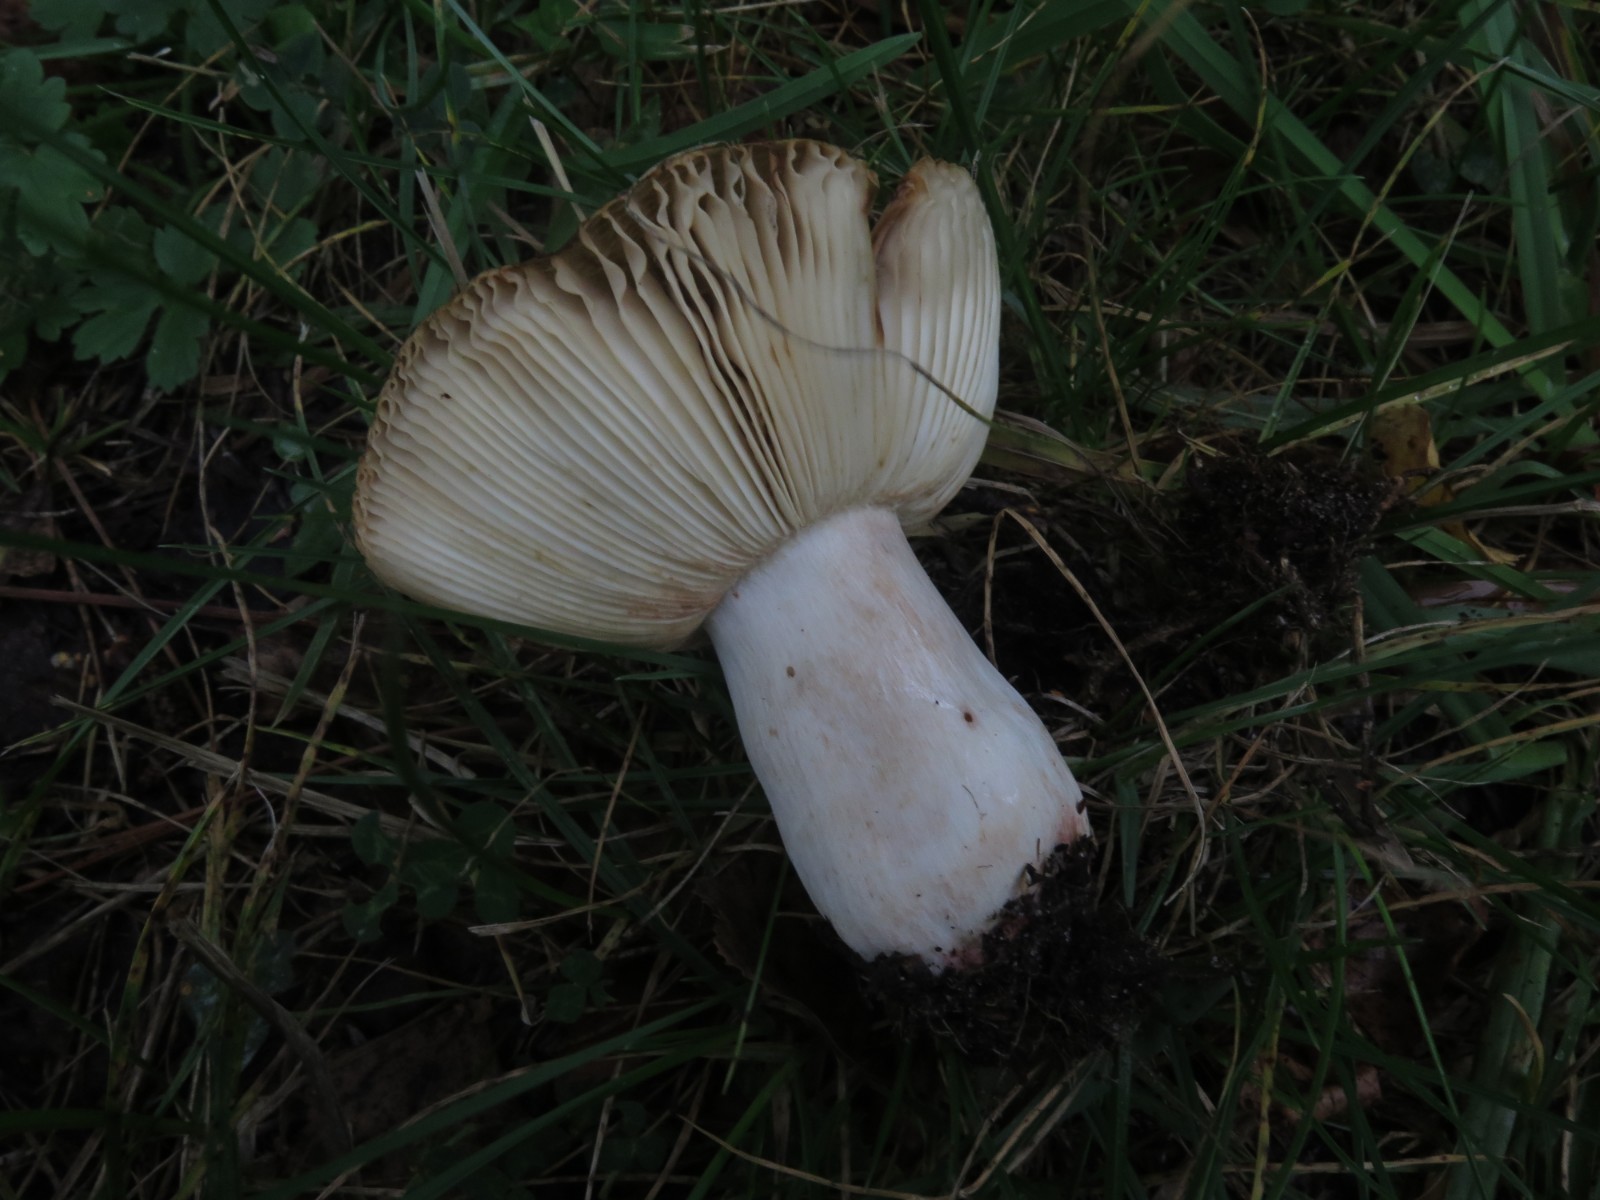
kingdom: Fungi
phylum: Basidiomycota
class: Agaricomycetes
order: Russulales
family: Russulaceae
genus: Russula
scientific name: Russula sororia
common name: brun kam-skørhat
